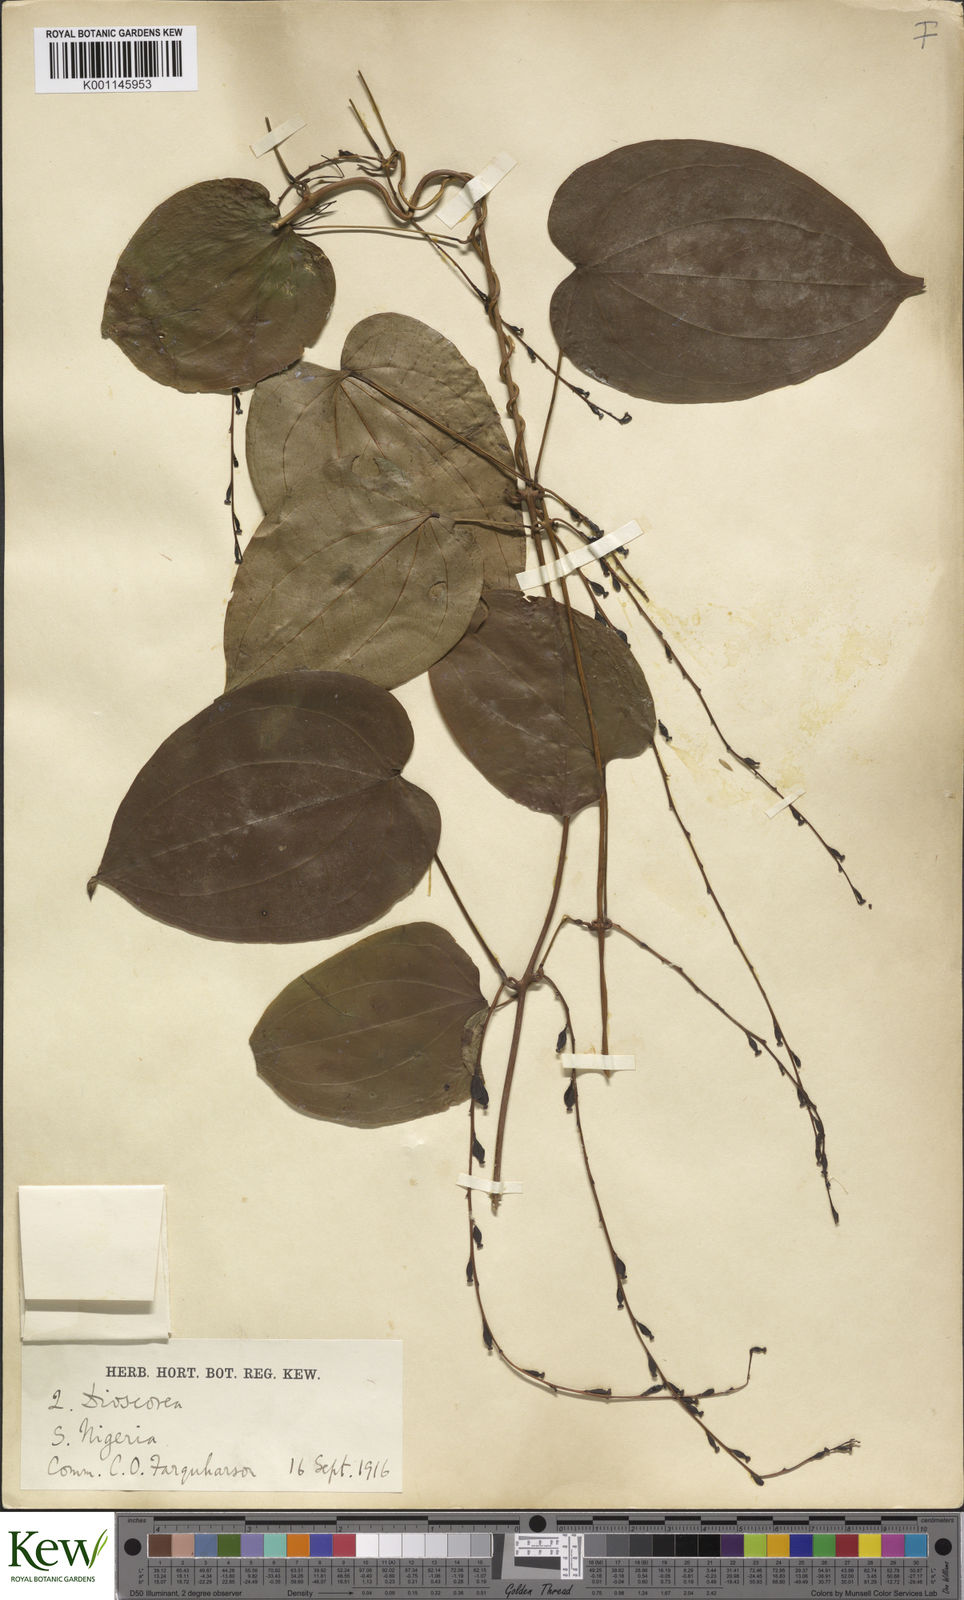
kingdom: Plantae
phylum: Tracheophyta
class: Liliopsida
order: Dioscoreales
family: Dioscoreaceae
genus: Dioscorea
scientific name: Dioscorea praehensilis
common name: Bush yam
